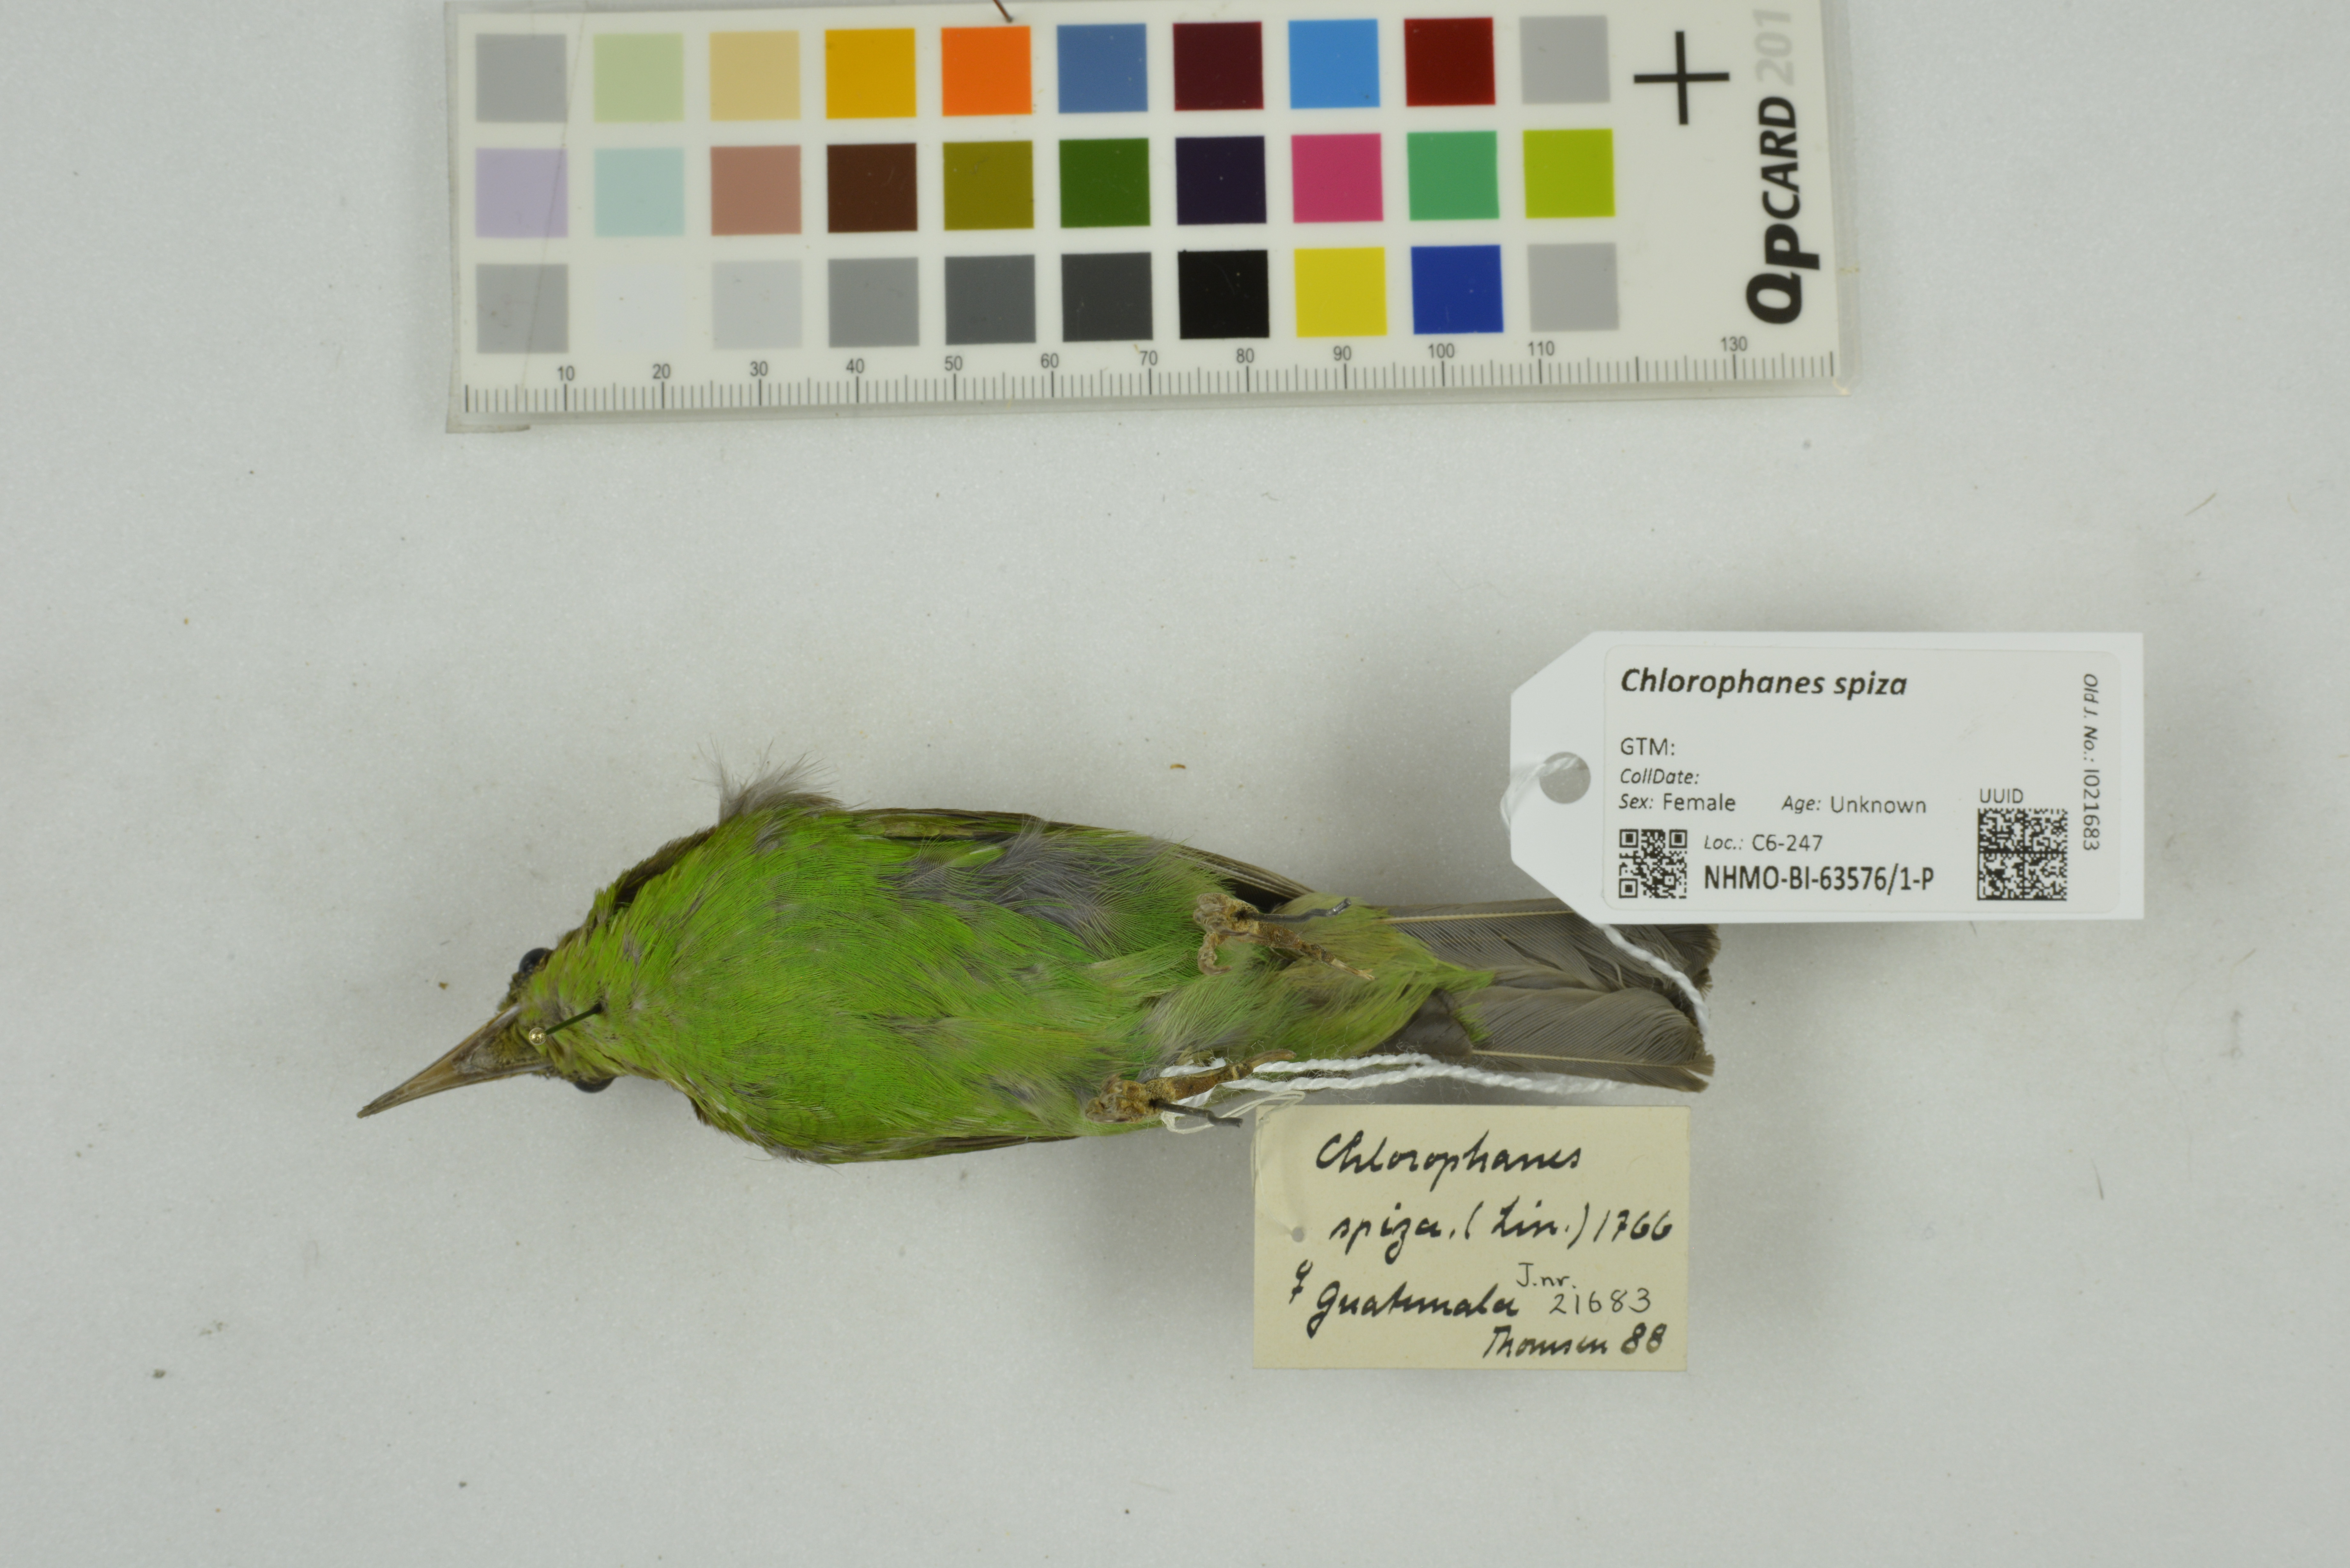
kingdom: Animalia
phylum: Chordata
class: Aves
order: Passeriformes
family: Thraupidae
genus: Chlorophanes
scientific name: Chlorophanes spiza
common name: Green honeycreeper
